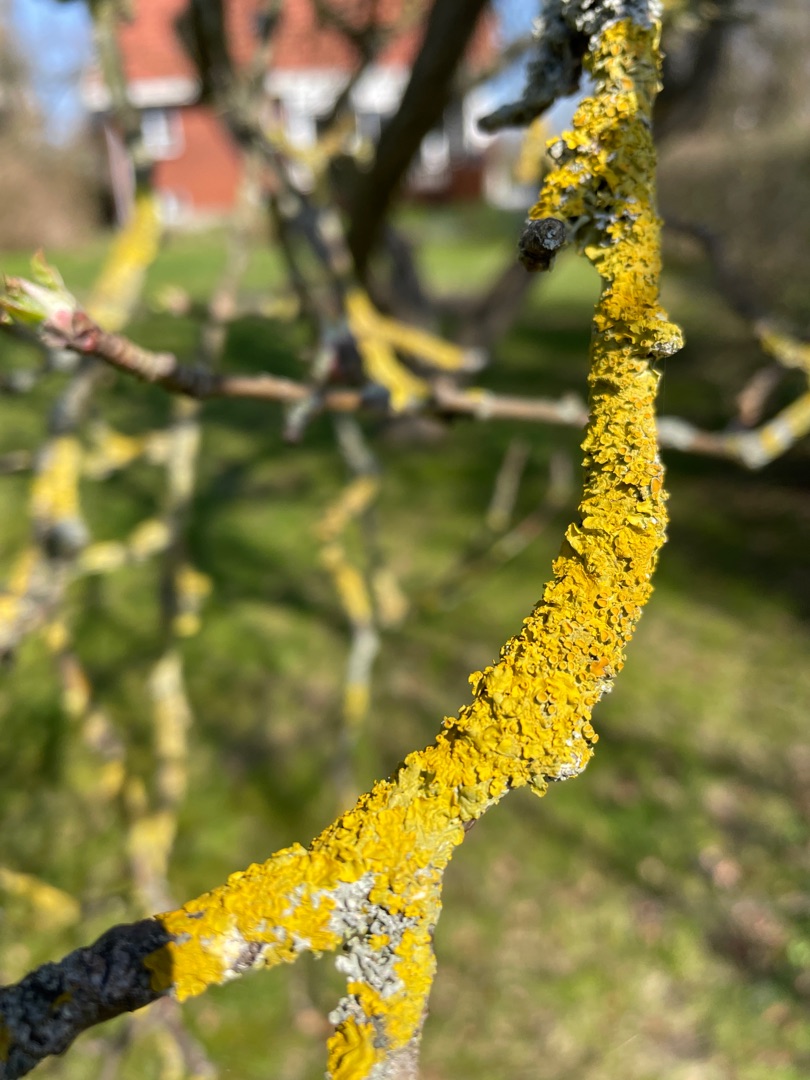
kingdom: Fungi
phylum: Ascomycota
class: Lecanoromycetes
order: Teloschistales
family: Teloschistaceae
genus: Xanthoria
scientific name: Xanthoria parietina
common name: Almindelig væggelav
